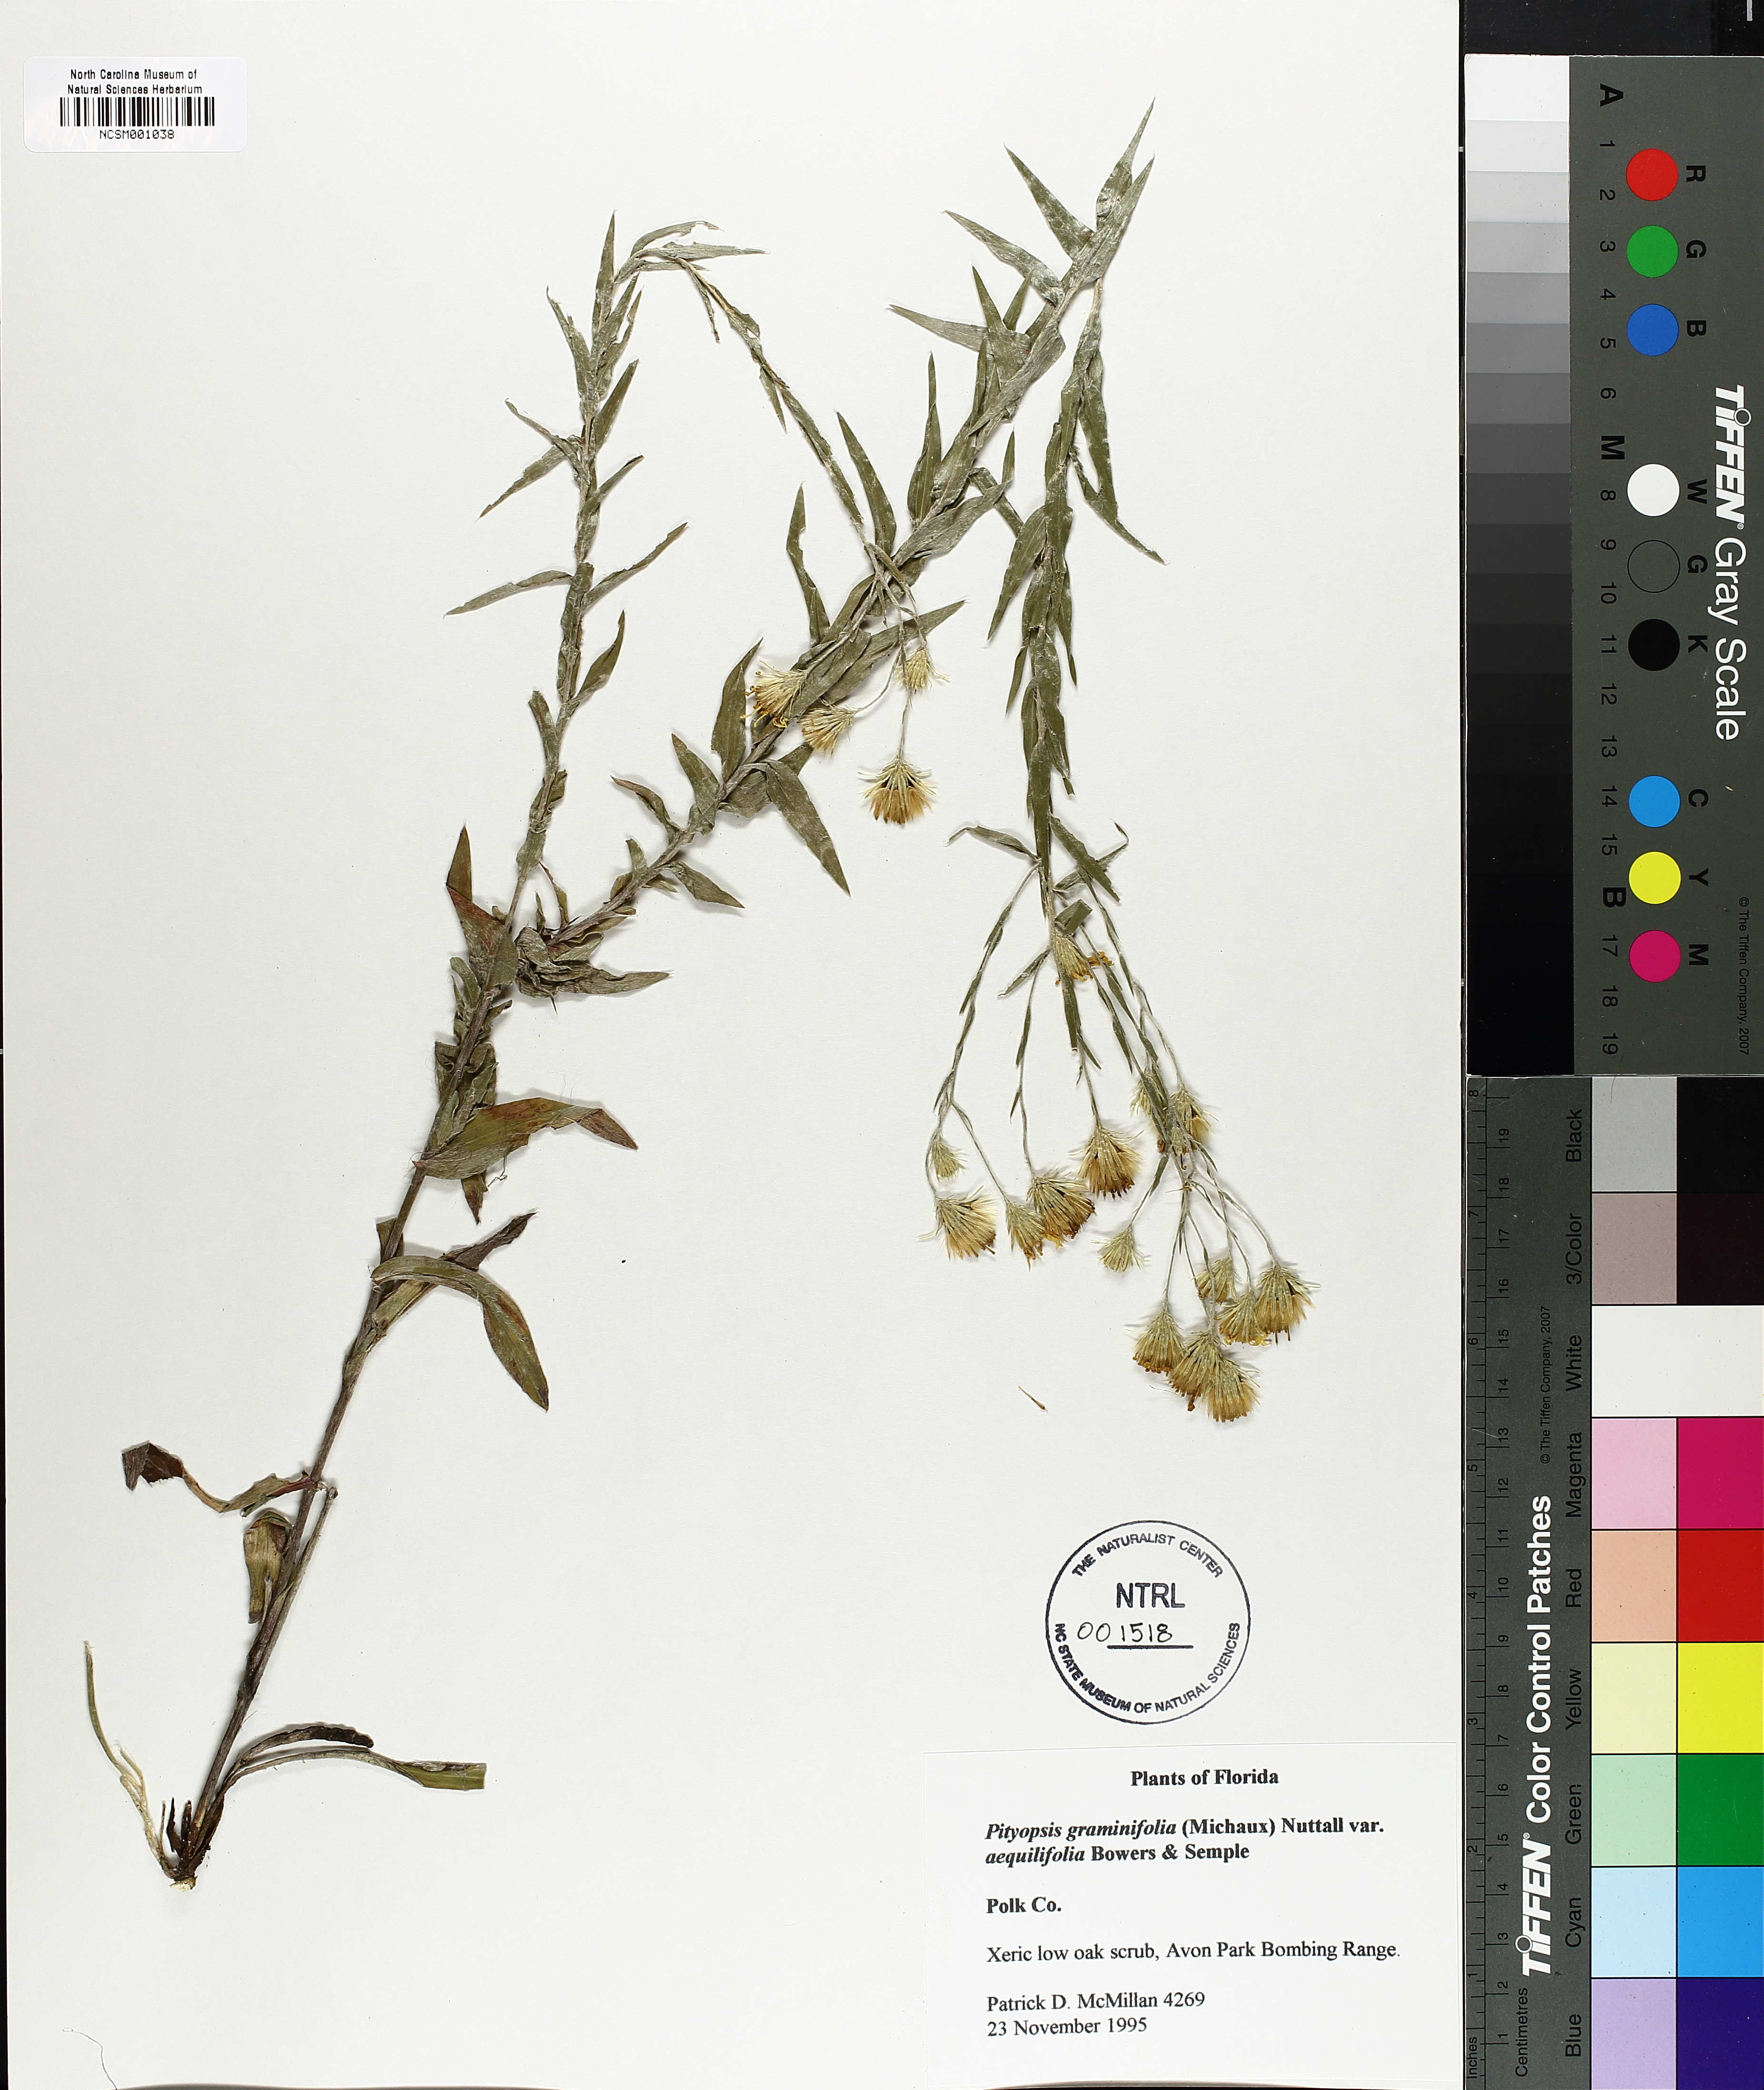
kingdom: Plantae
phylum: Tracheophyta
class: Magnoliopsida
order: Asterales
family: Asteraceae
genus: Pityopsis
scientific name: Pityopsis aequilifolia
